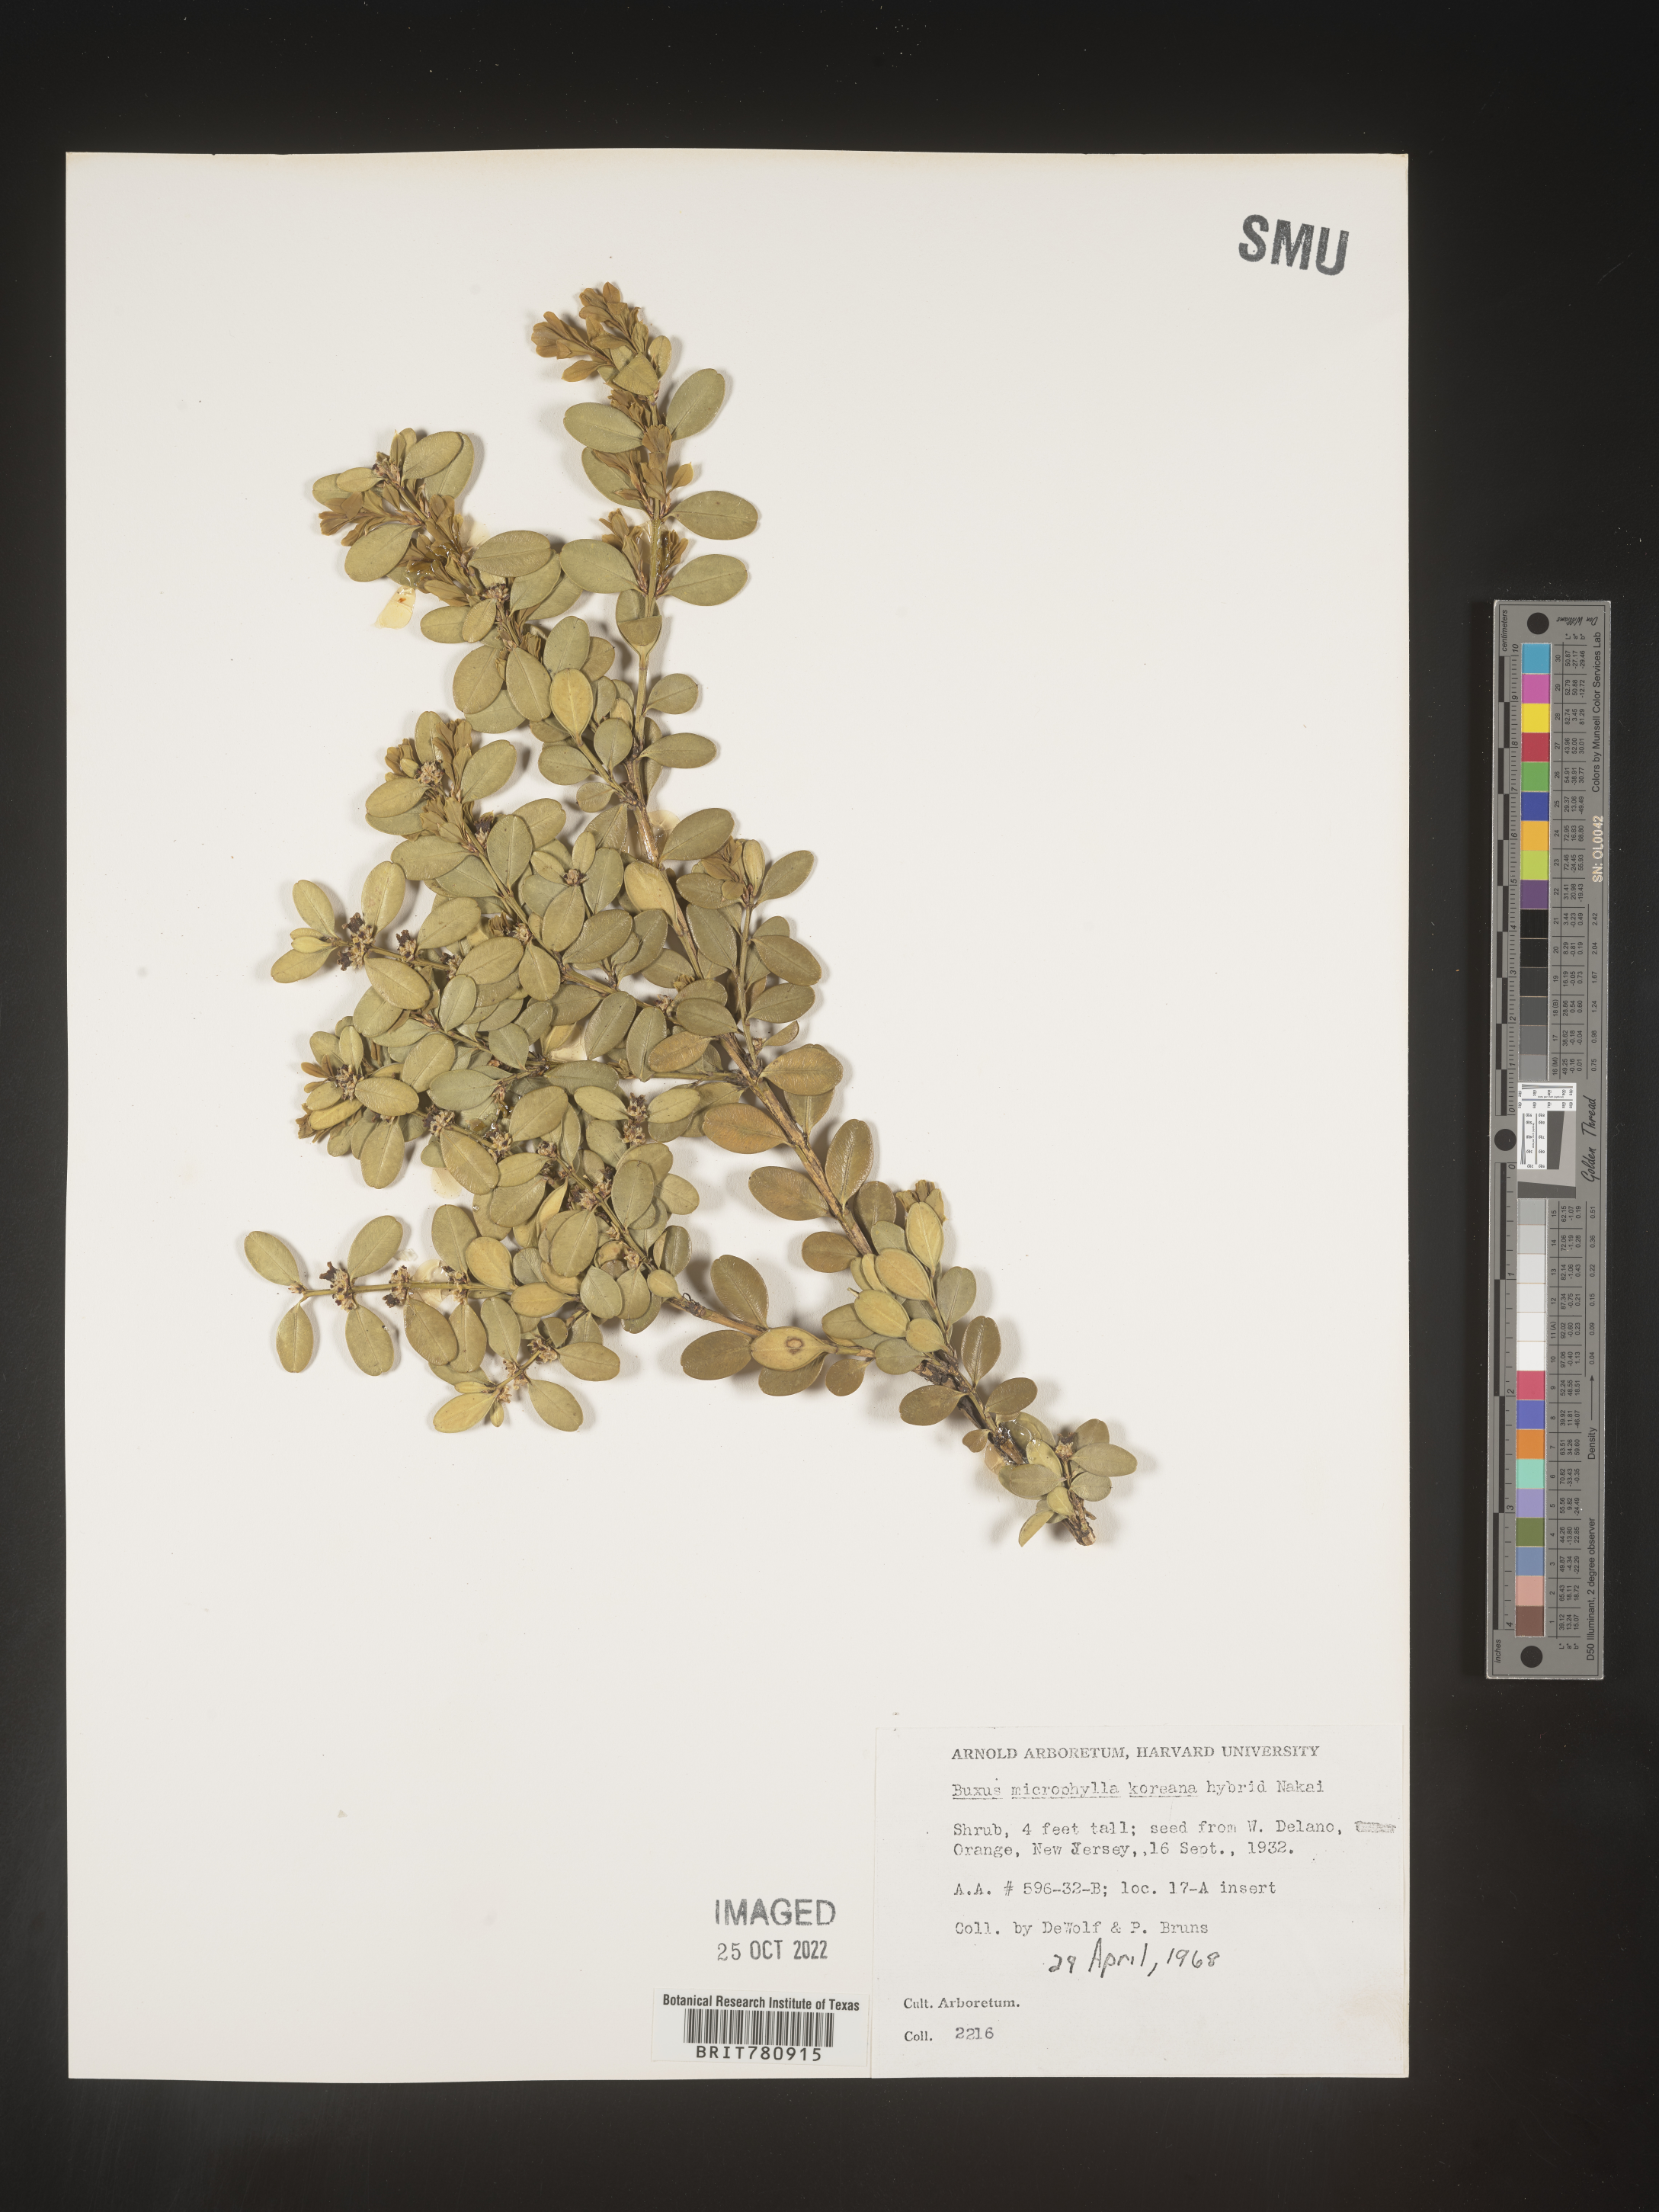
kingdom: Plantae
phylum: Tracheophyta
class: Magnoliopsida
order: Buxales
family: Buxaceae
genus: Buxus
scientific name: Buxus
